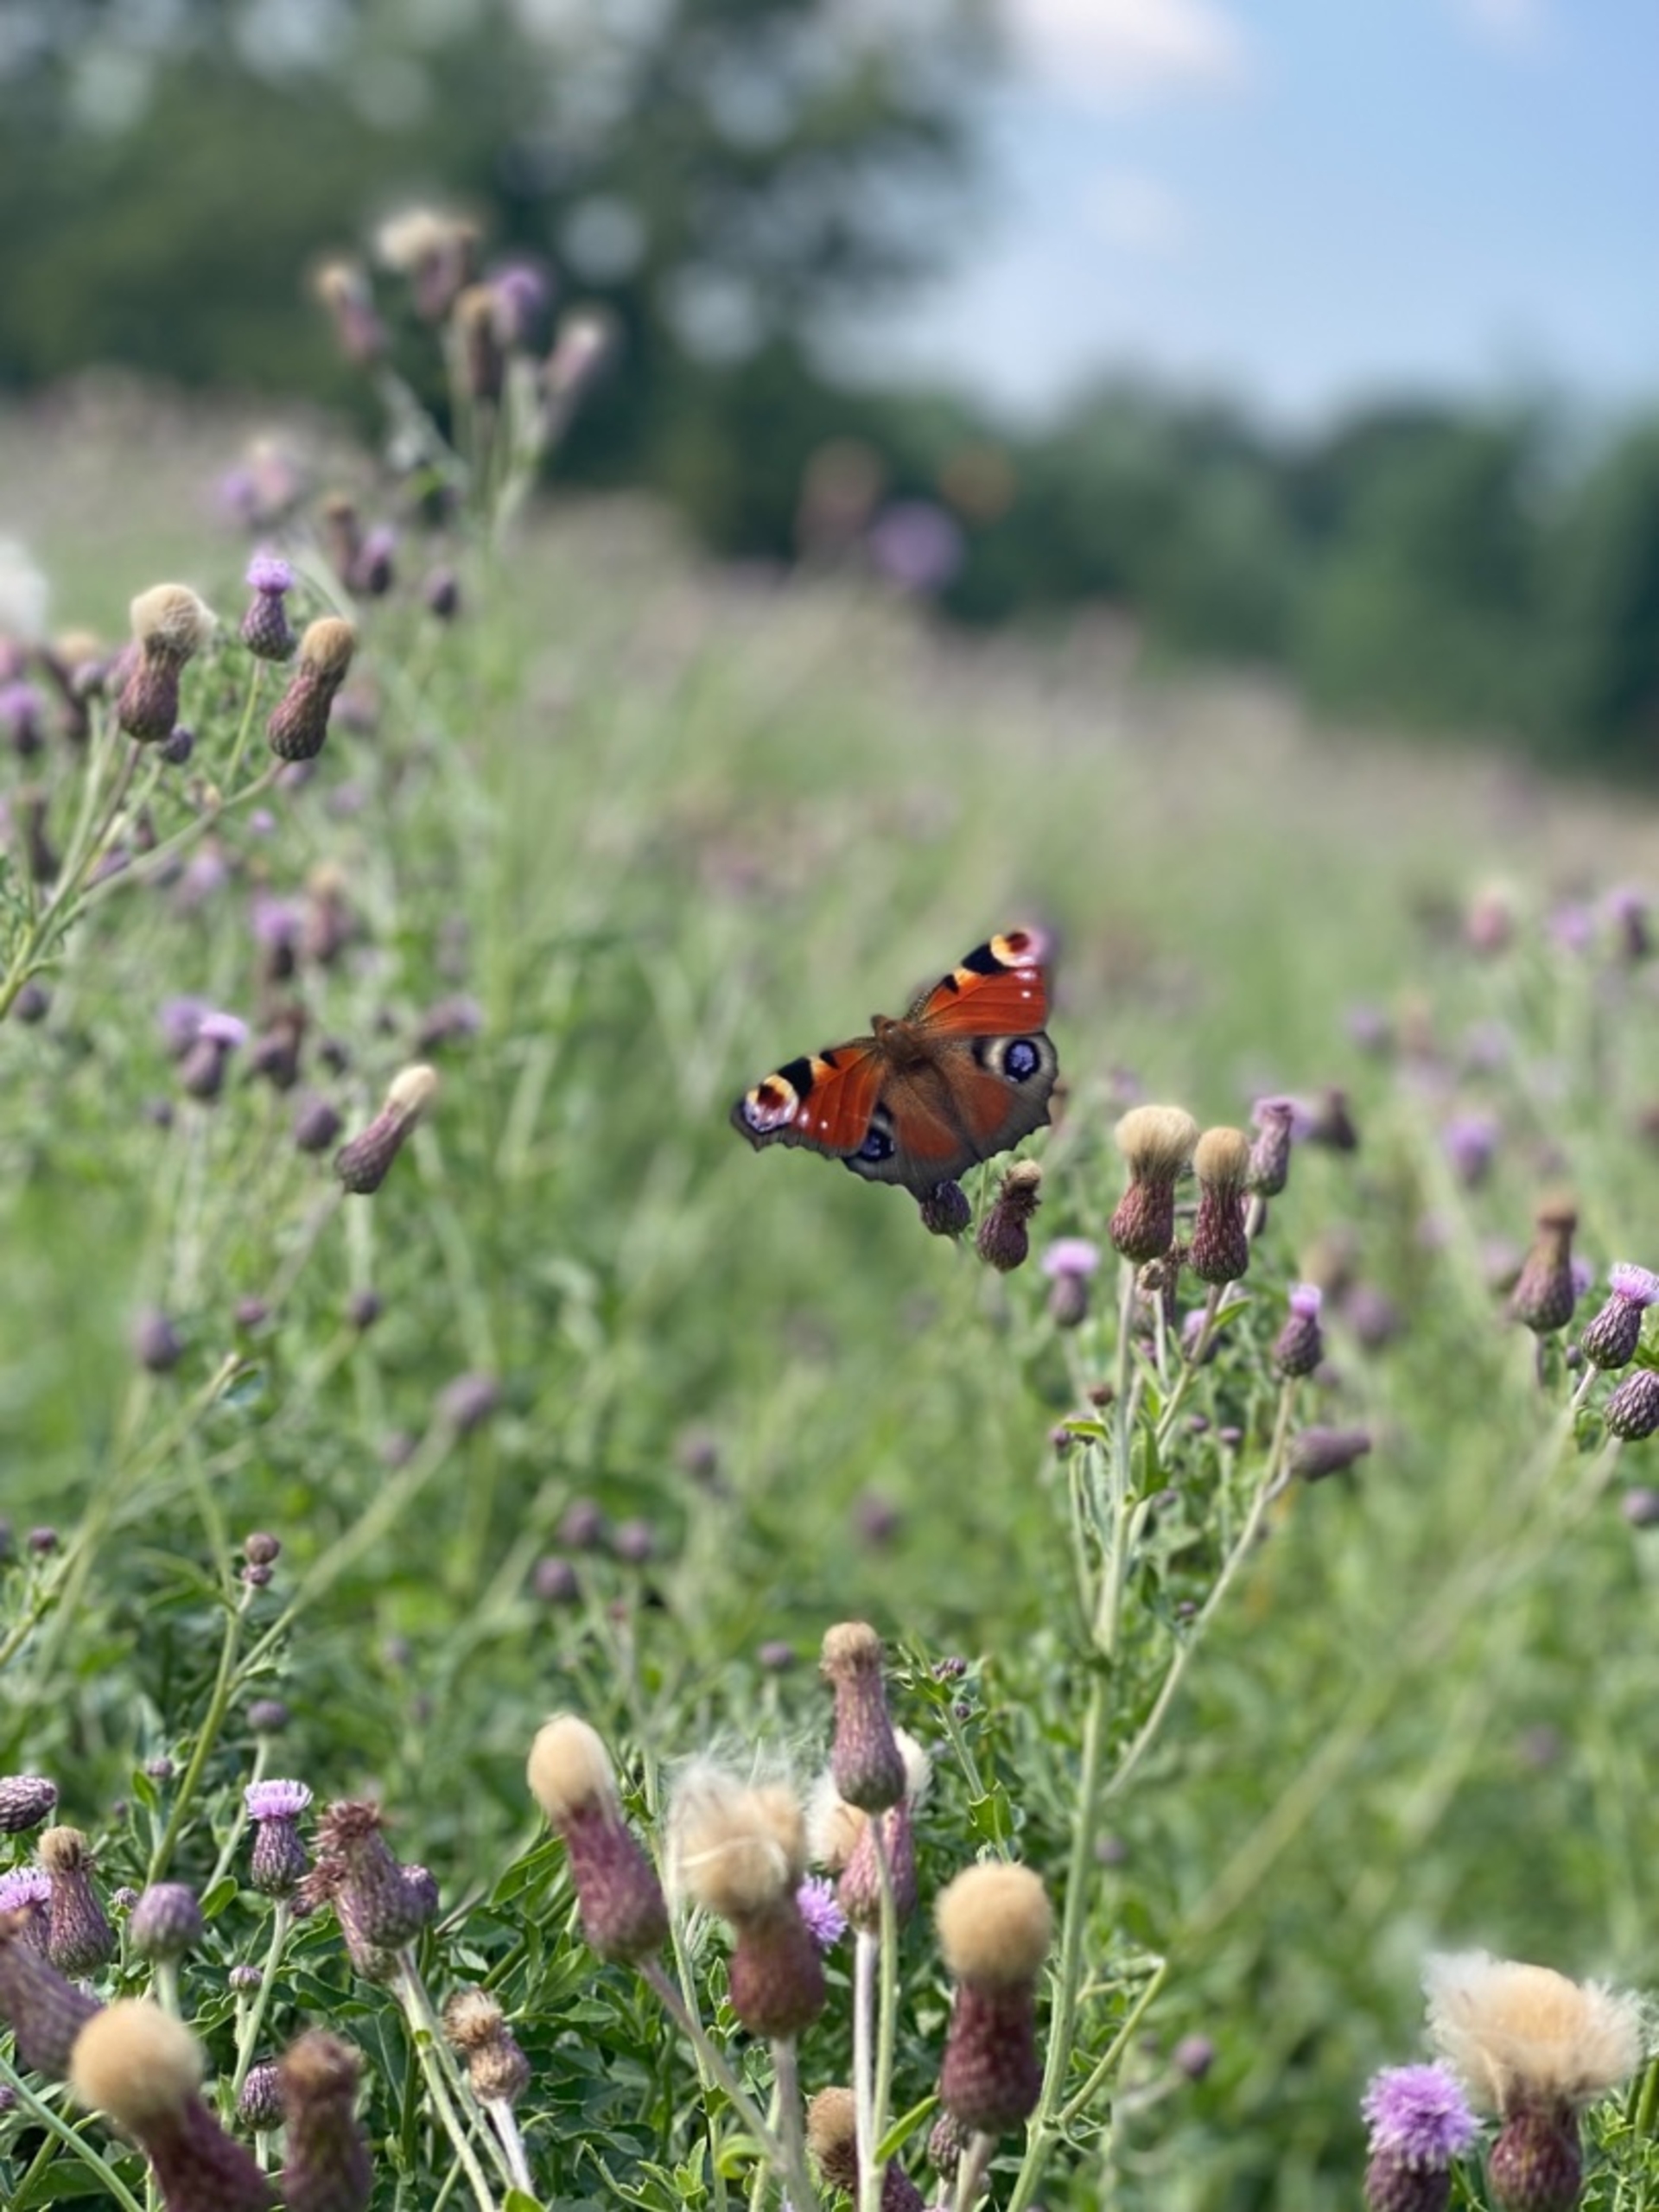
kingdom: Animalia
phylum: Arthropoda
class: Insecta
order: Lepidoptera
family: Nymphalidae
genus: Aglais
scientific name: Aglais io
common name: Dagpåfugleøje
